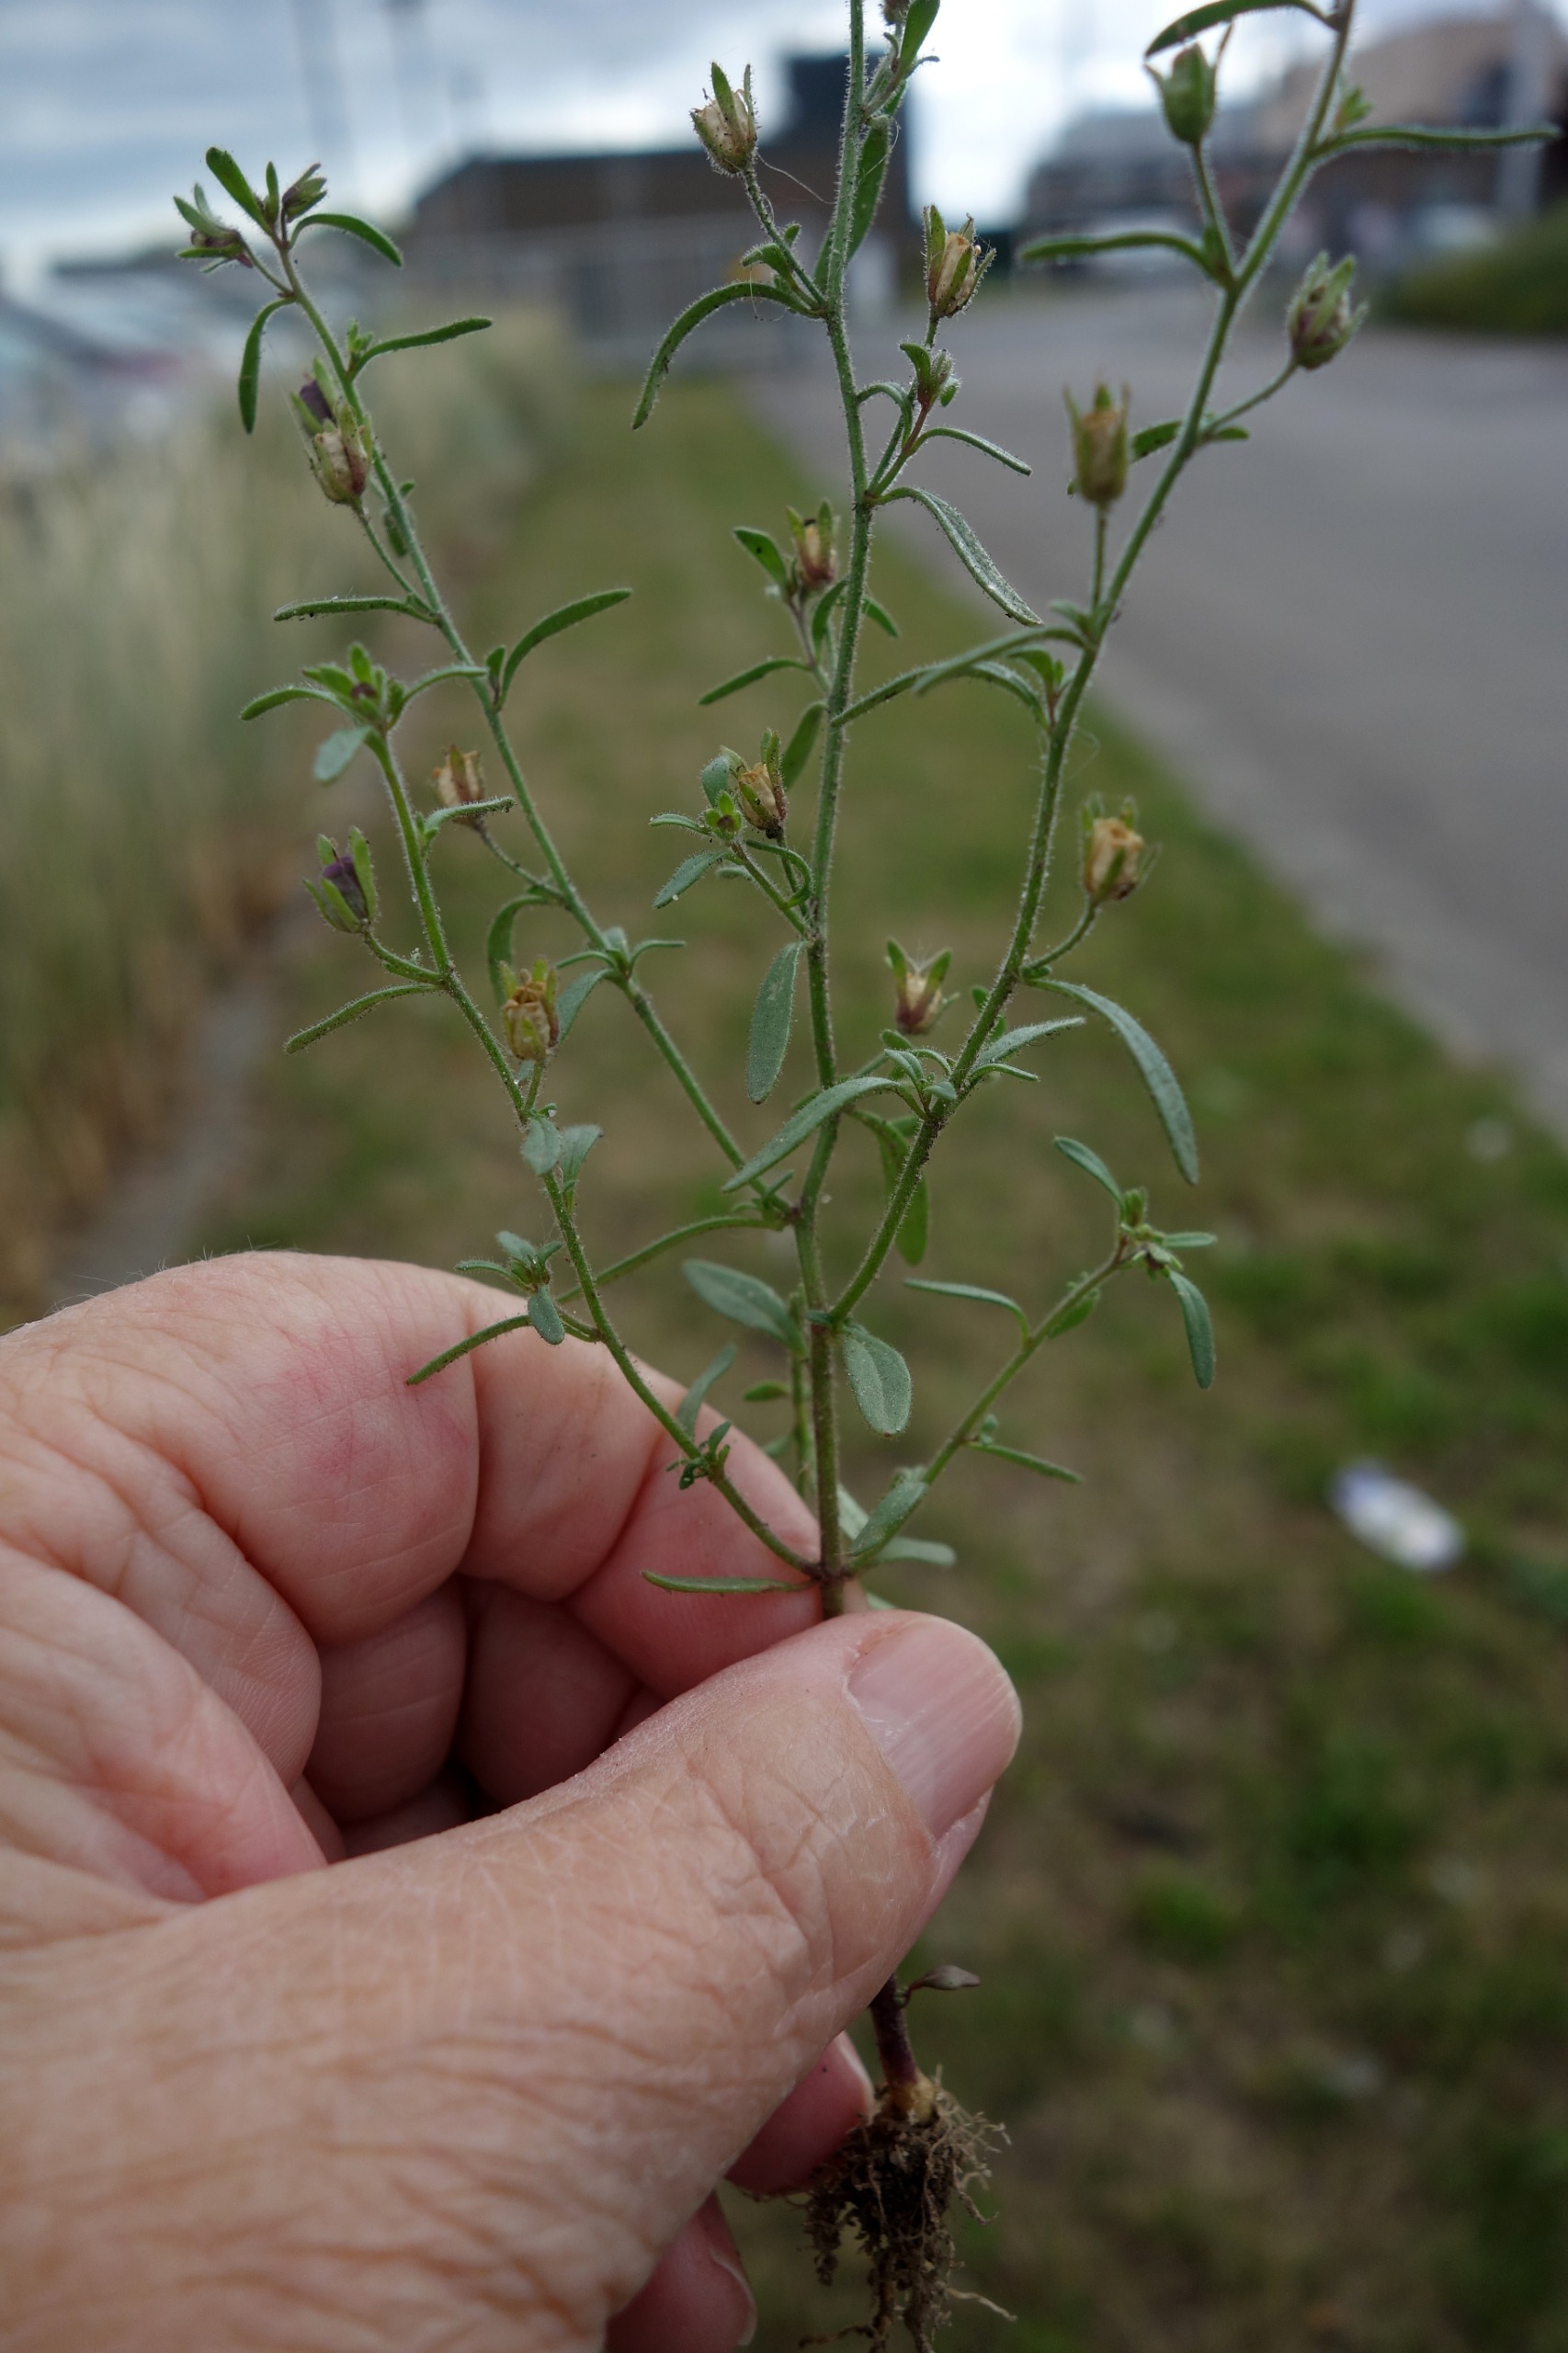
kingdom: Plantae
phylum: Tracheophyta
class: Magnoliopsida
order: Lamiales
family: Plantaginaceae
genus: Chaenorhinum
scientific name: Chaenorhinum minus
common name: Liden torskemund
